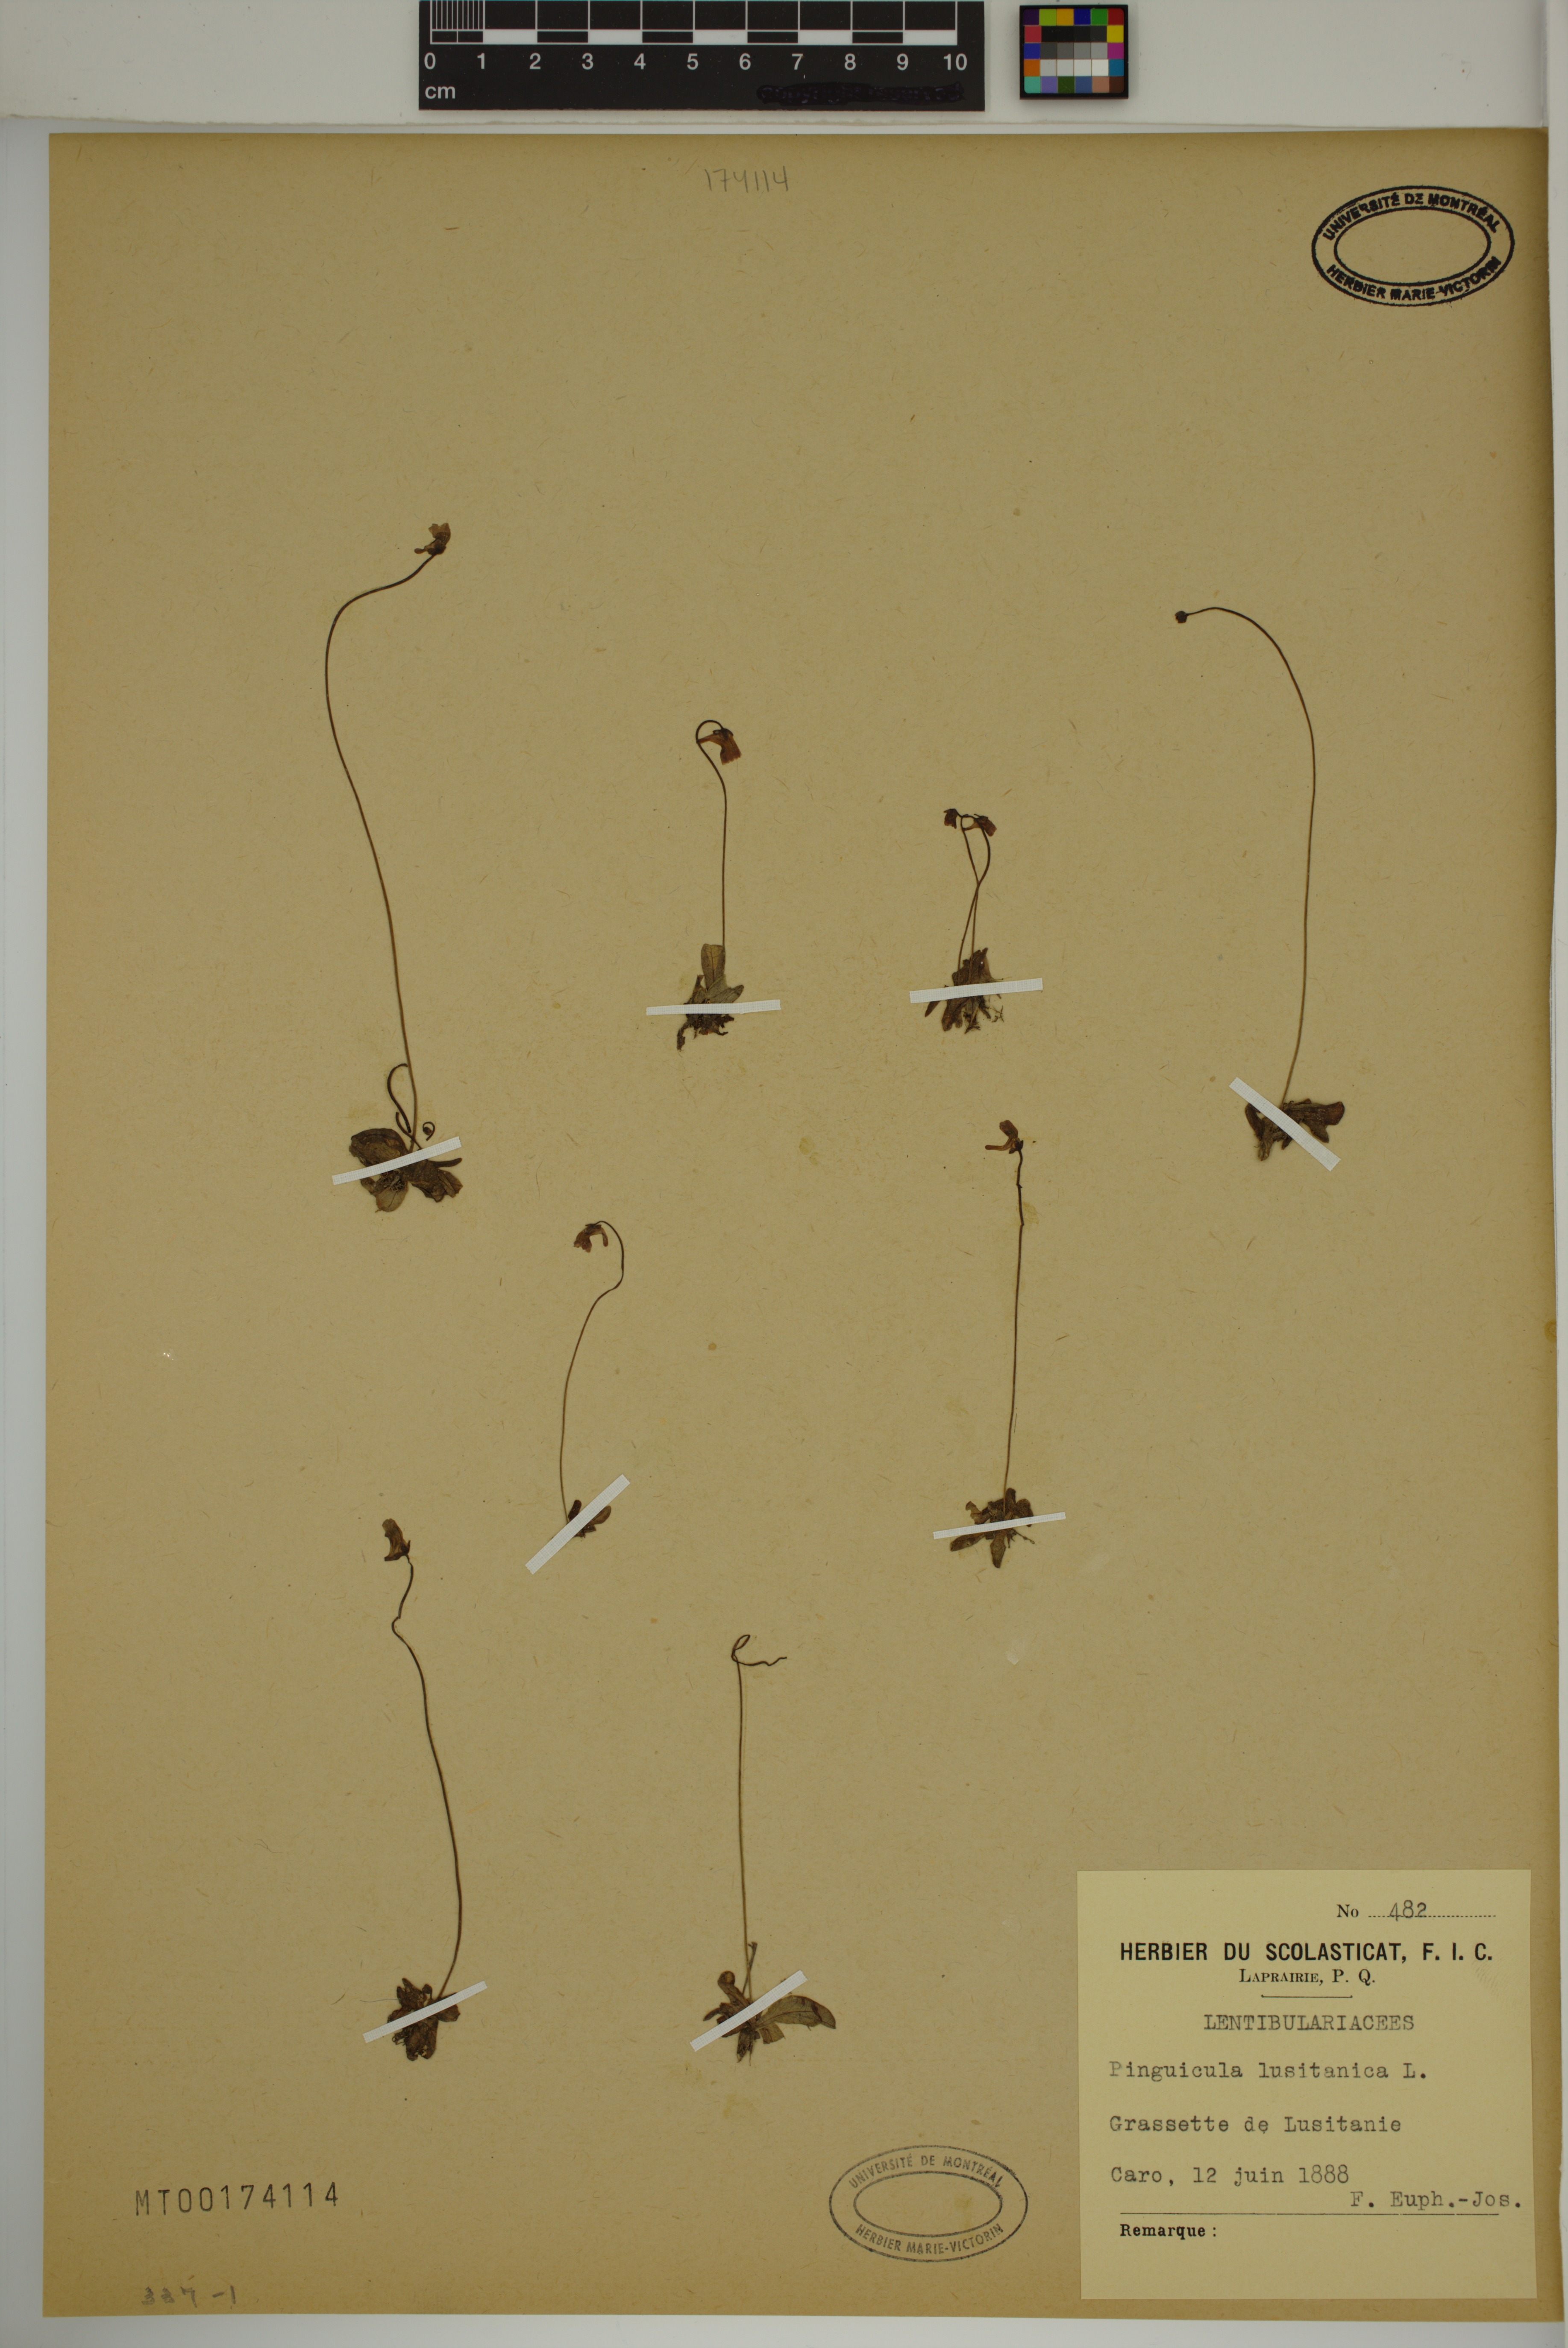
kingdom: Plantae
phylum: Tracheophyta
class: Magnoliopsida
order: Lamiales
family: Lentibulariaceae
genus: Pinguicula
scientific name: Pinguicula lusitanica
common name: Pale butterwort
